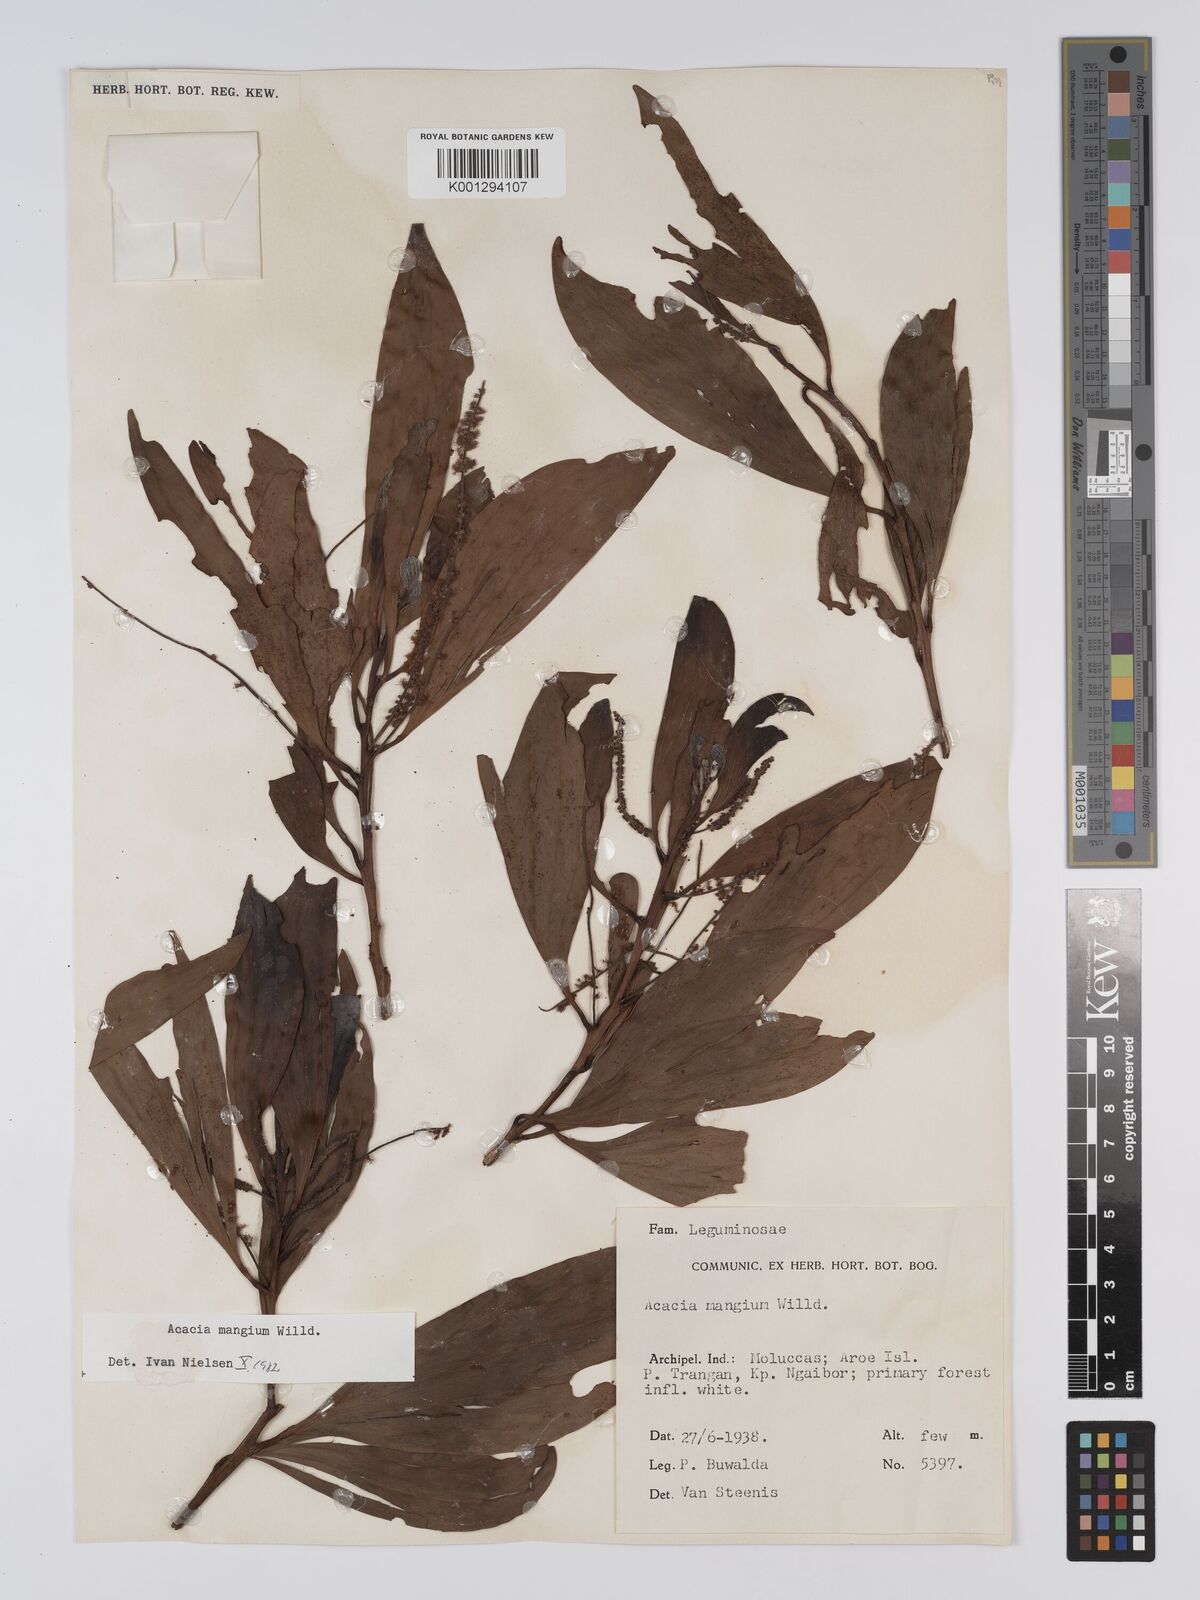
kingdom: Plantae
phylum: Tracheophyta
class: Magnoliopsida
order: Fabales
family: Fabaceae
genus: Acacia
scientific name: Acacia
